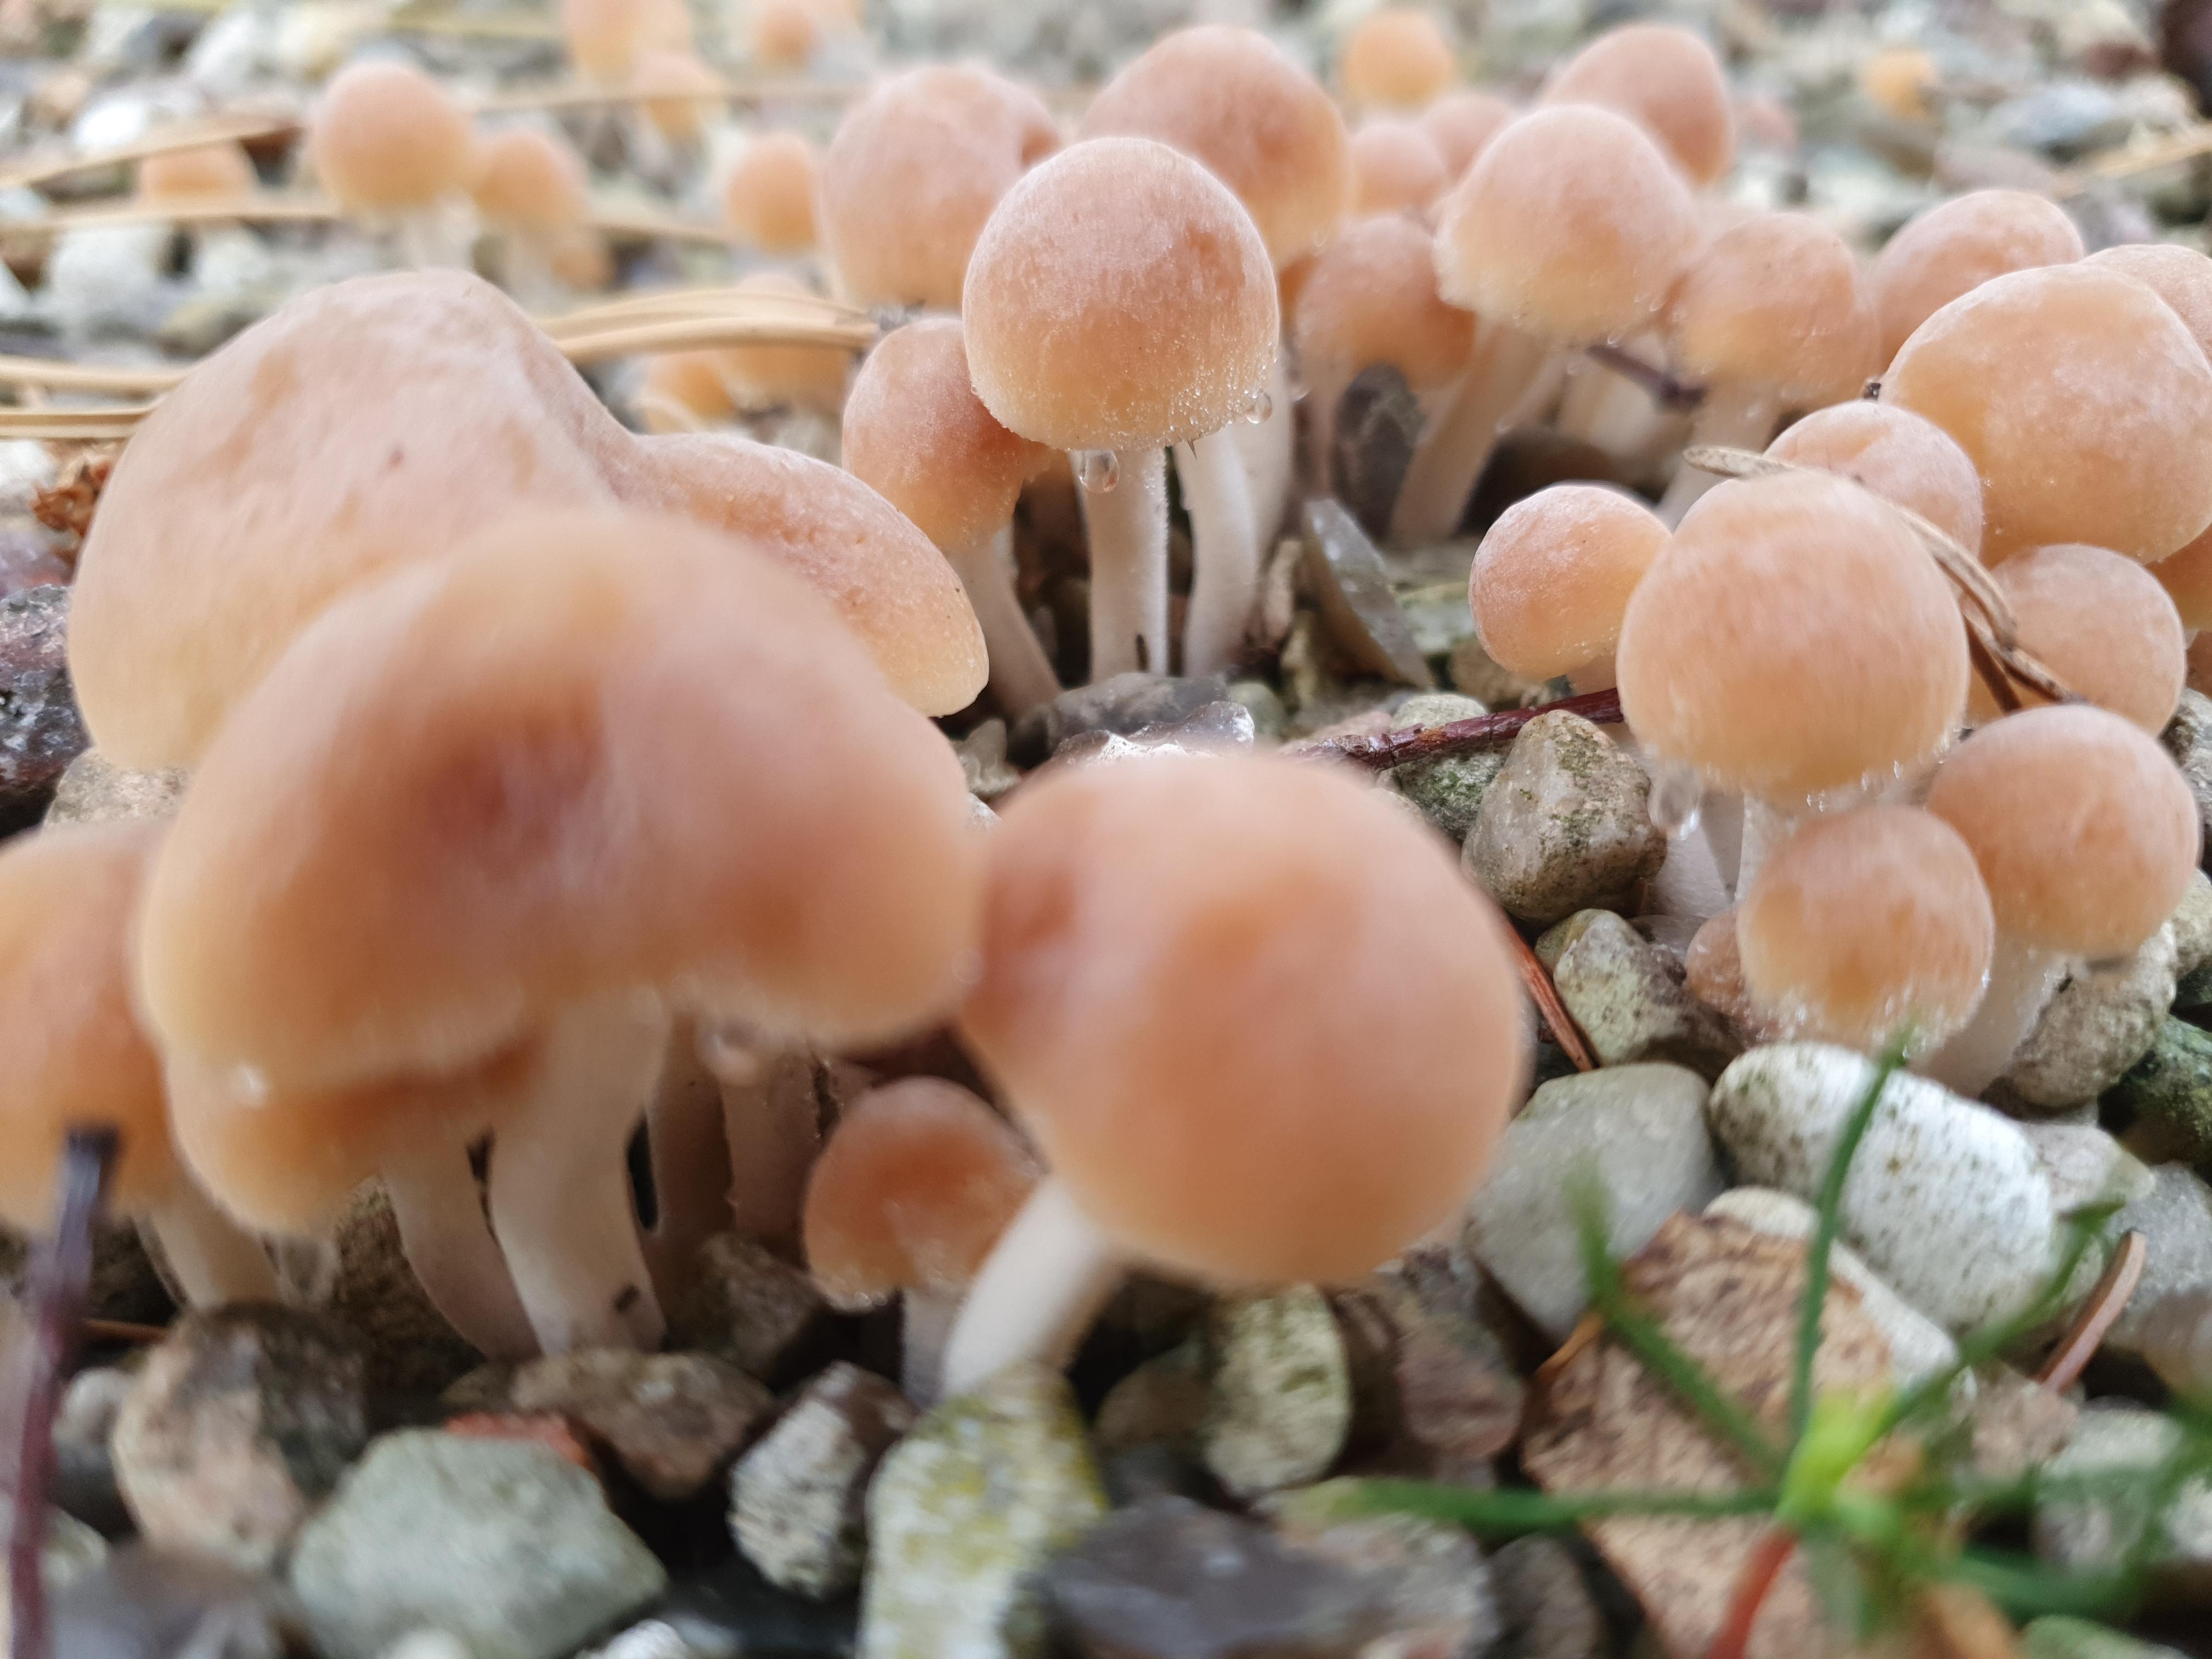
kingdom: Fungi
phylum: Basidiomycota
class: Agaricomycetes
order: Agaricales
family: Bolbitiaceae
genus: Pholiotina
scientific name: Pholiotina
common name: dansehat
